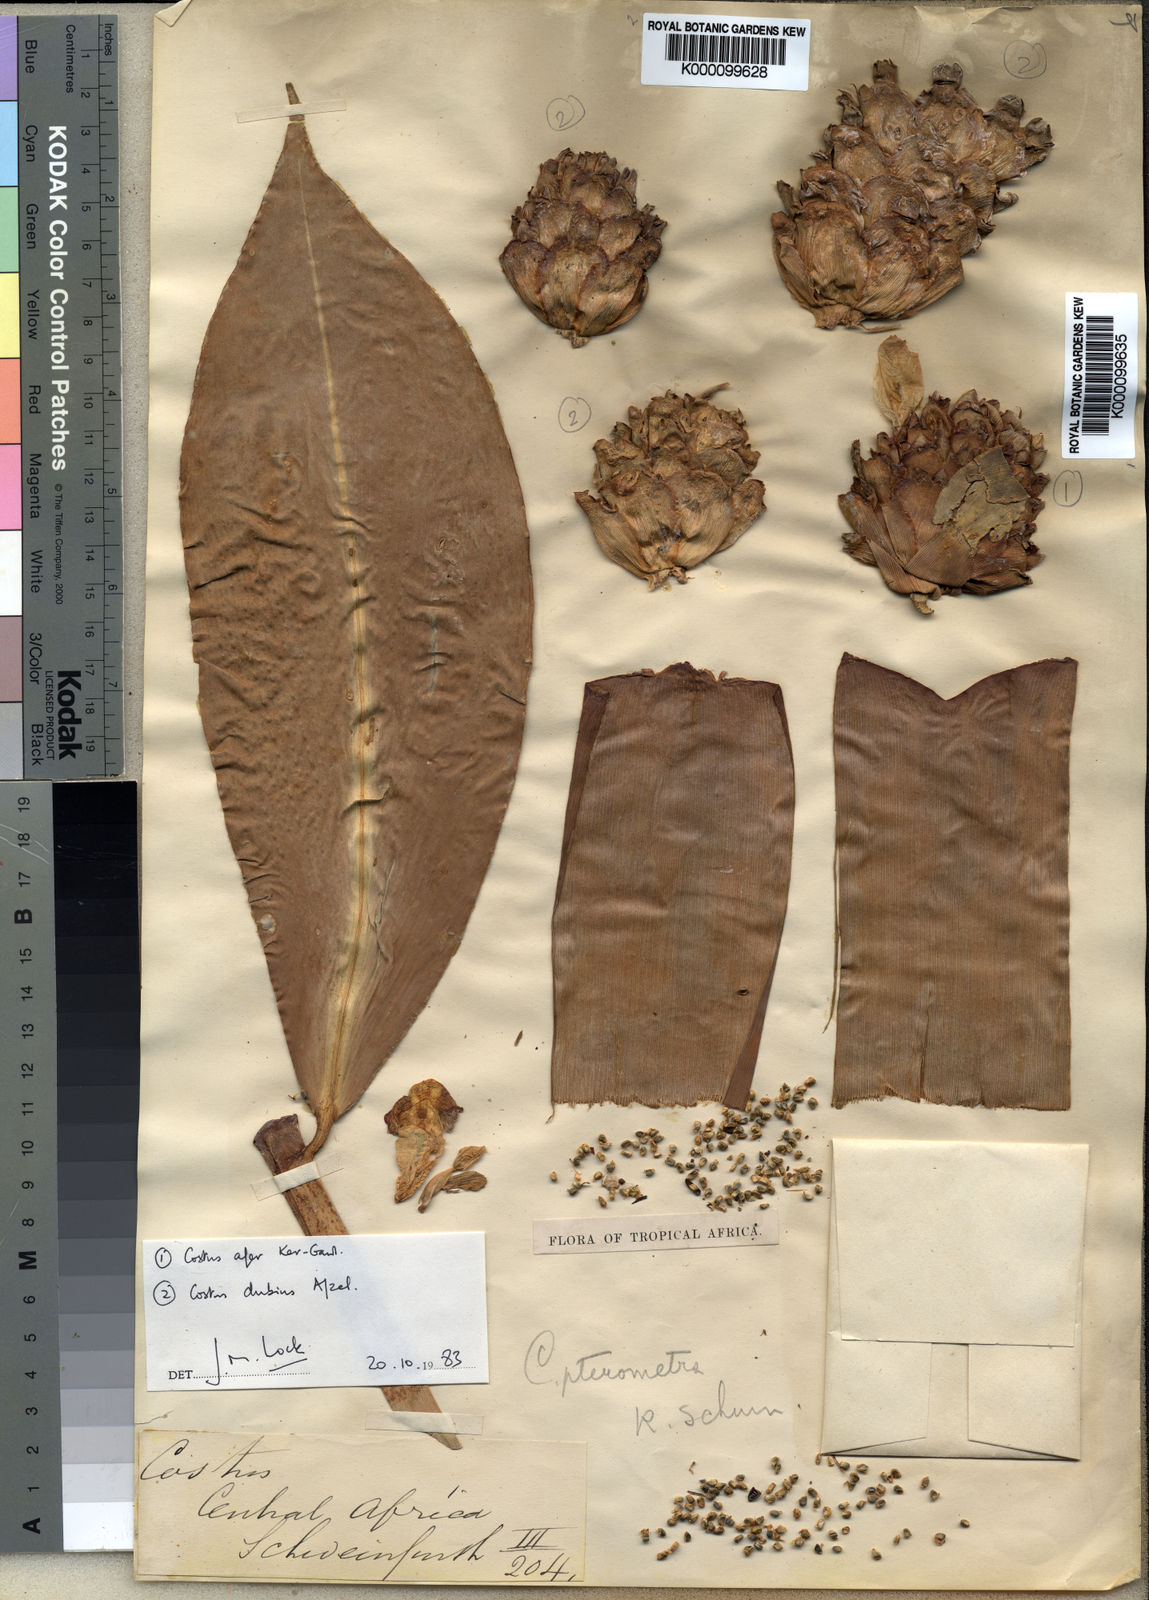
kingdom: Plantae
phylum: Tracheophyta
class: Liliopsida
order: Zingiberales
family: Costaceae
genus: Costus
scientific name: Costus dubius
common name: Costus
